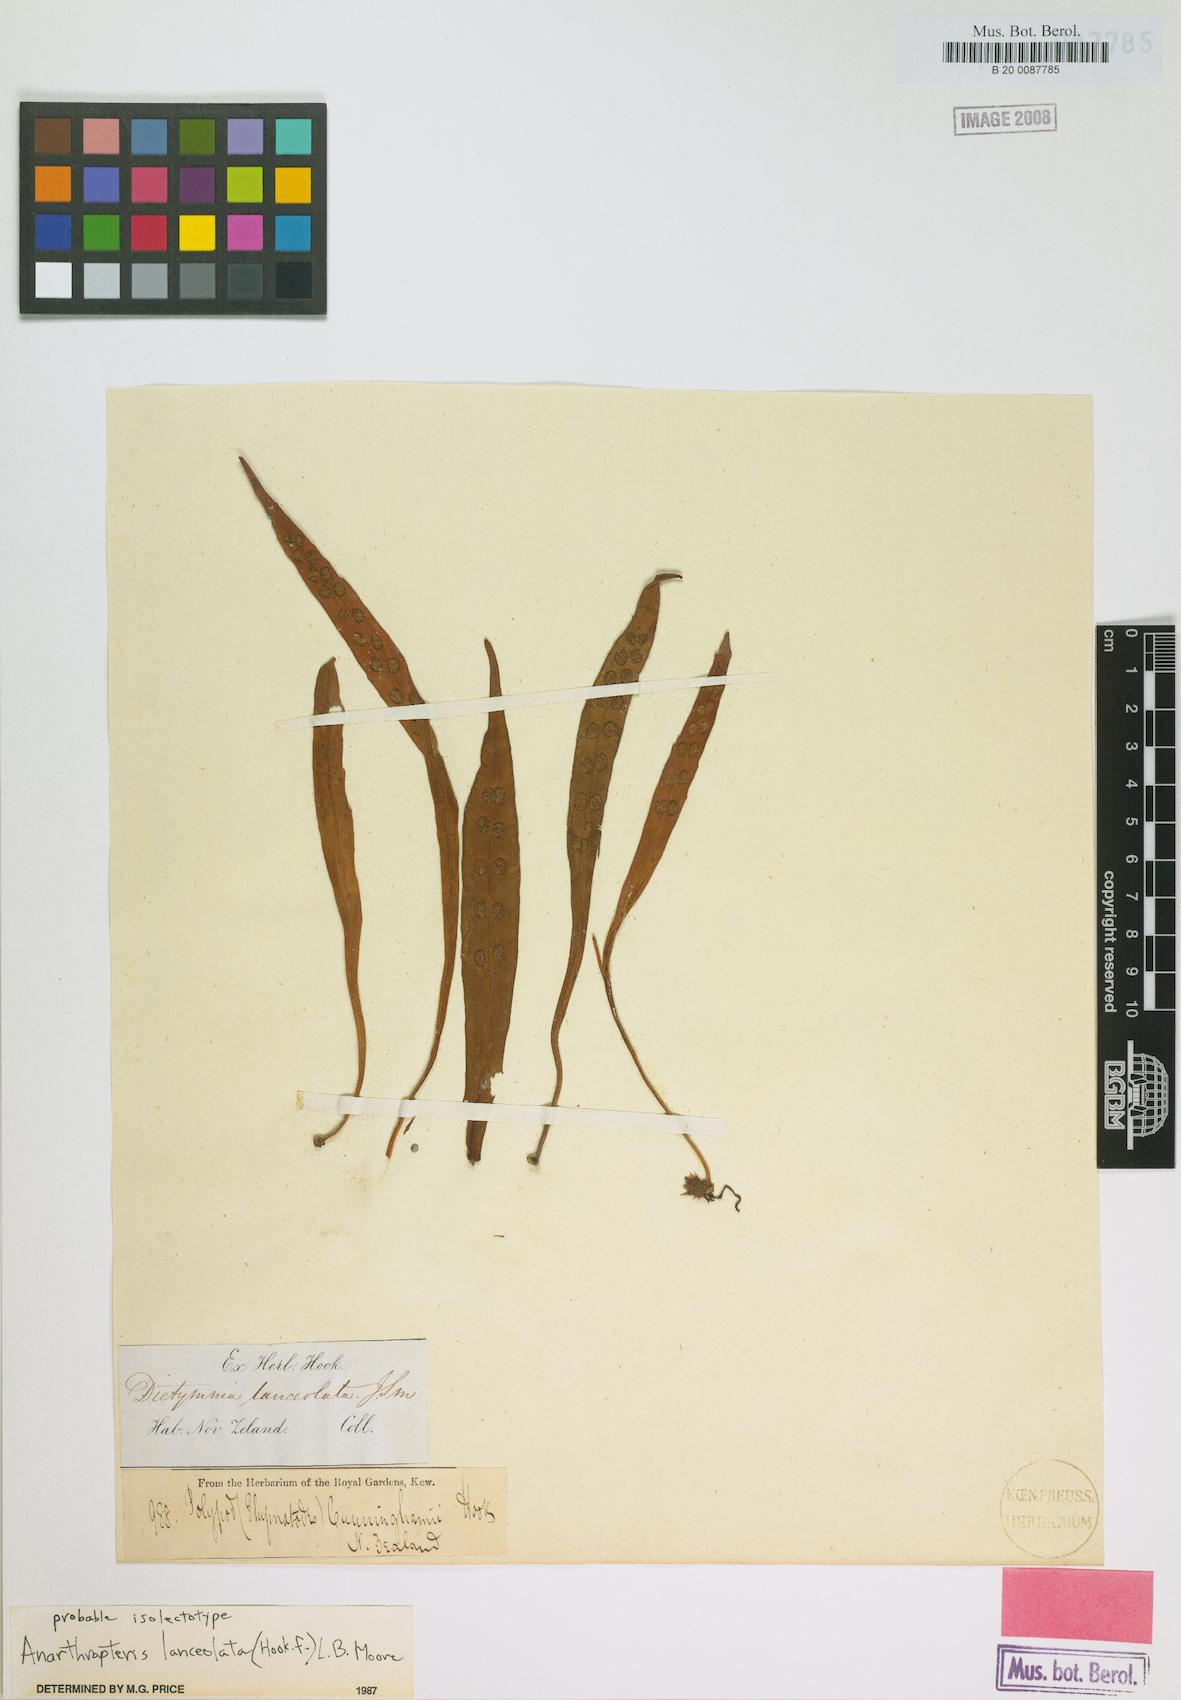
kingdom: Plantae
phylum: Tracheophyta
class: Polypodiopsida
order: Polypodiales
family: Polypodiaceae
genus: Loxogramme
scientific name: Loxogramme dictyopteris
